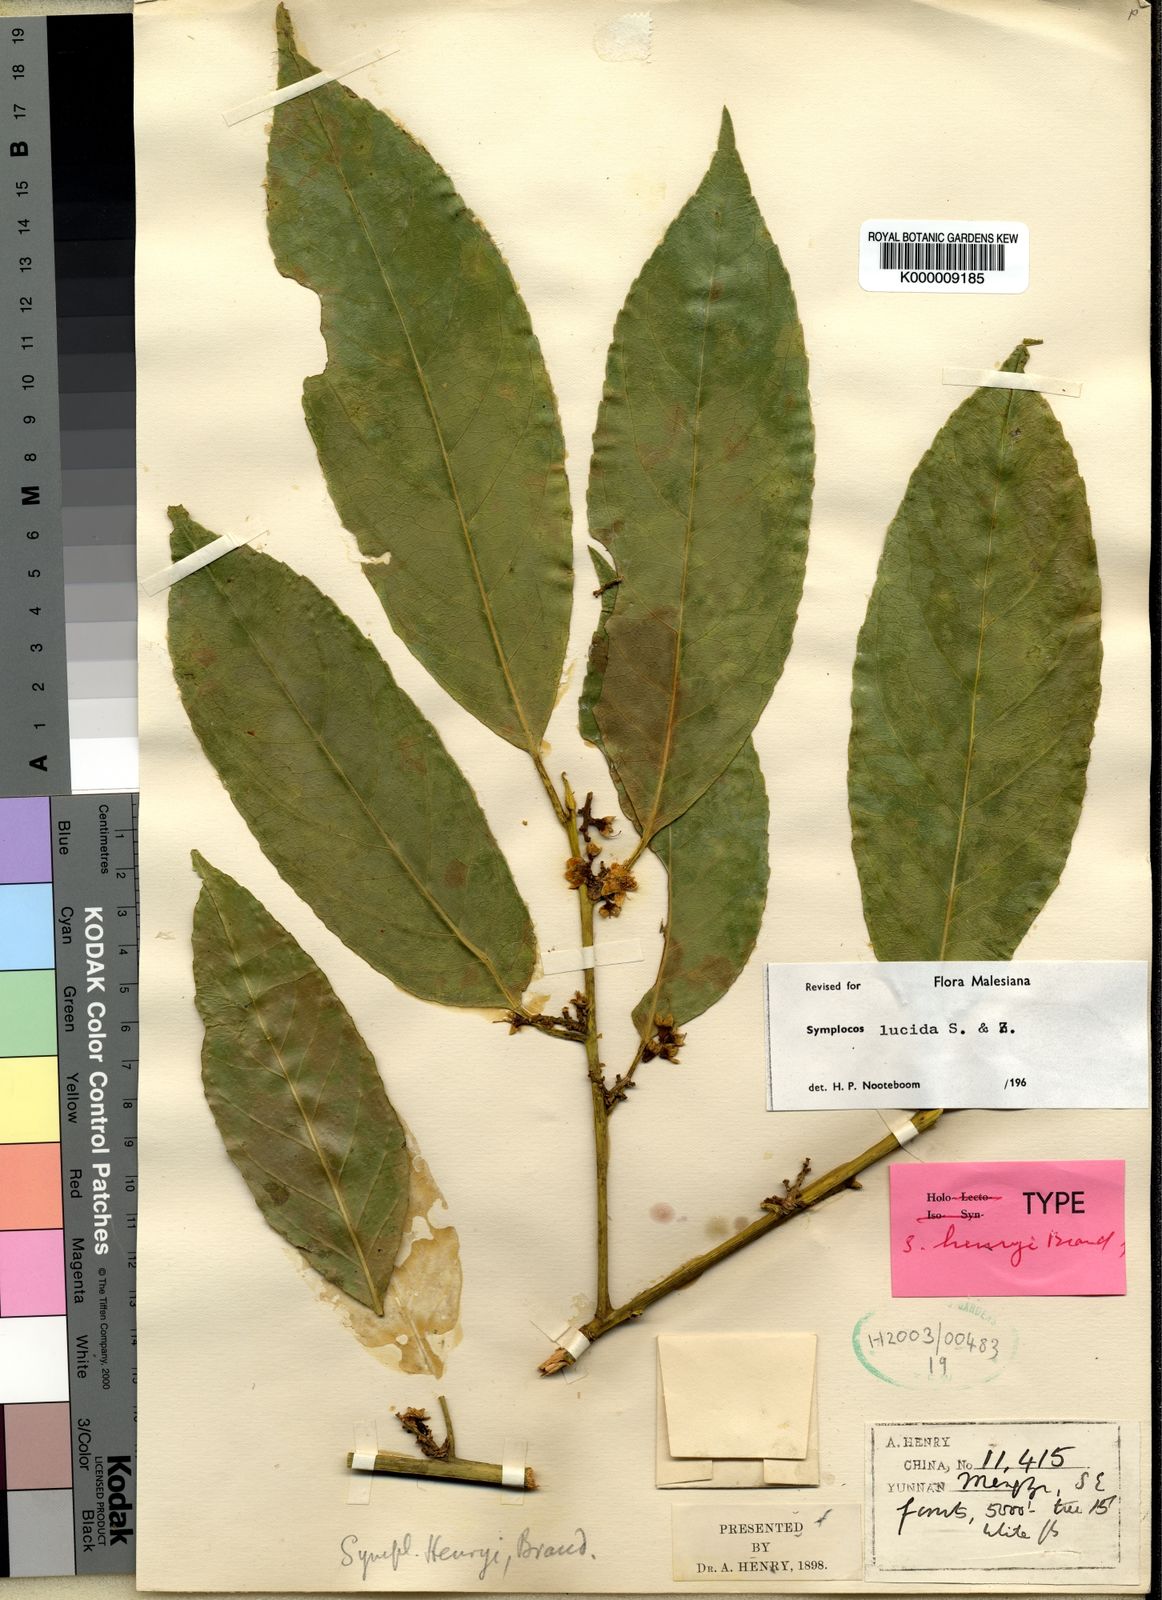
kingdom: Plantae
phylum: Tracheophyta
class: Magnoliopsida
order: Ericales
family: Symplocaceae
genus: Symplocos
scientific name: Symplocos
